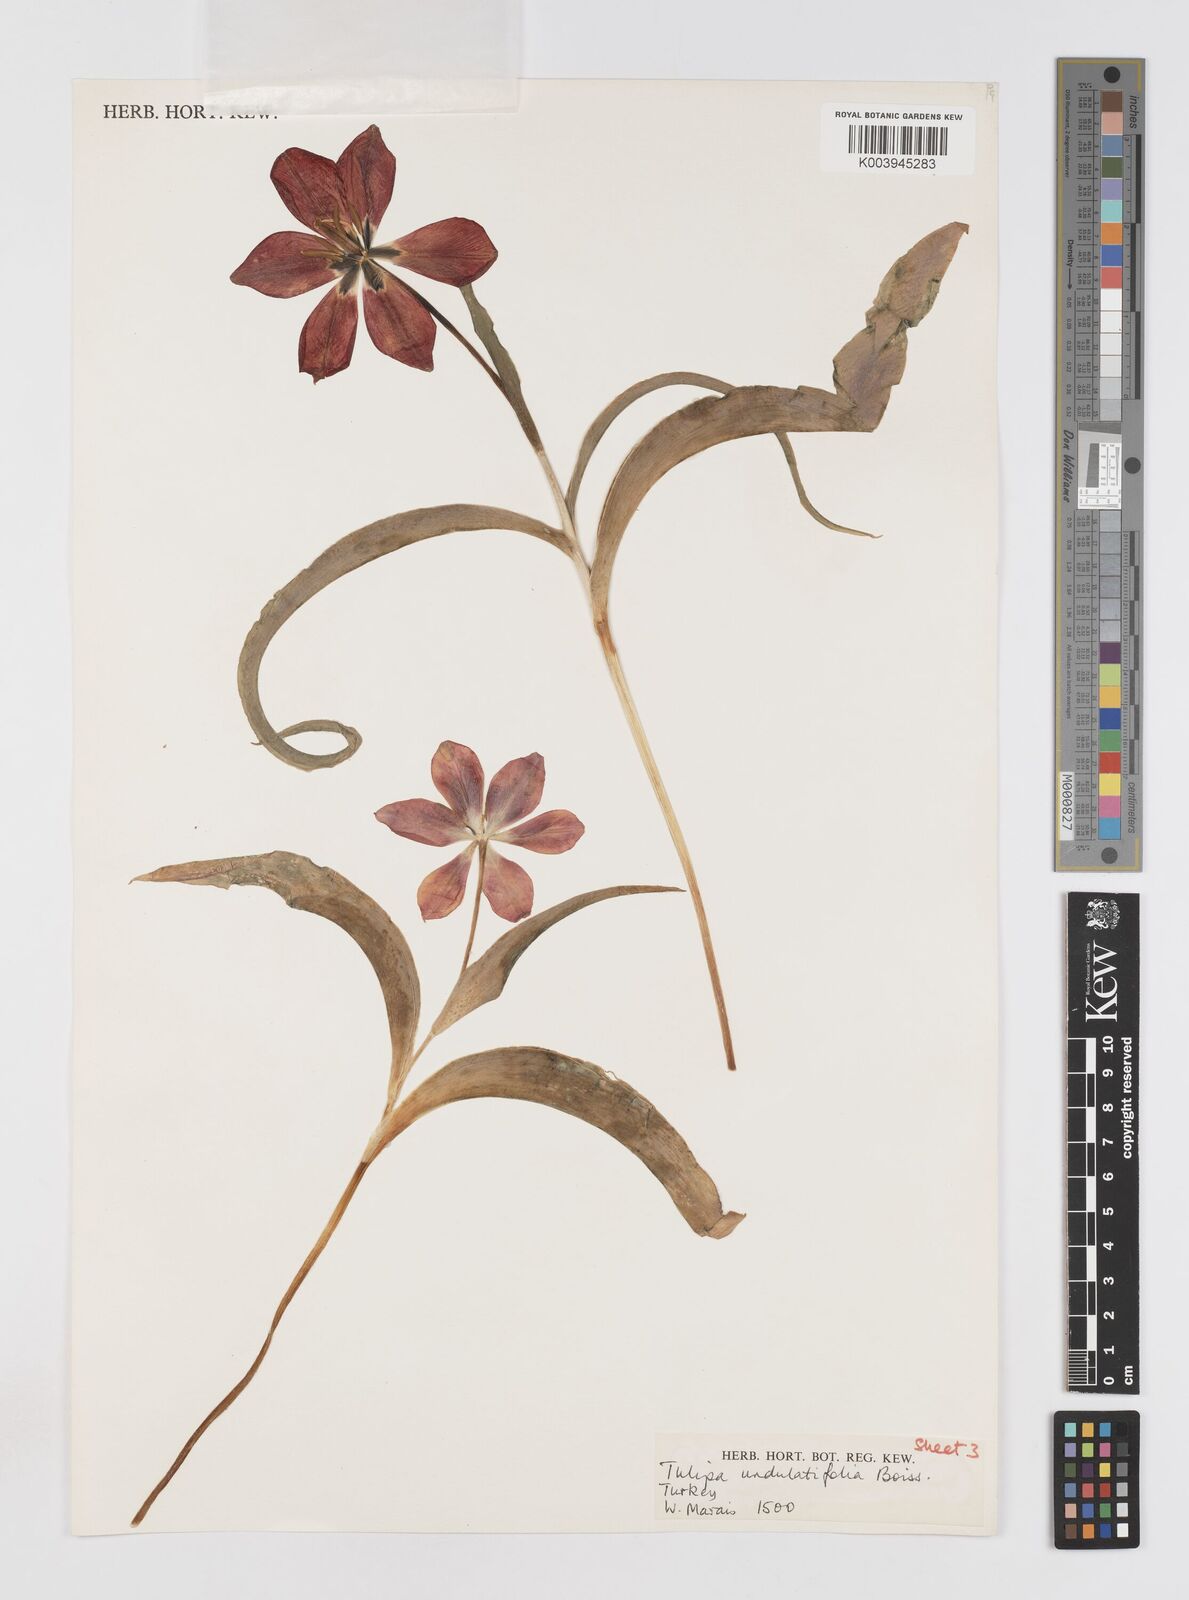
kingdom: Plantae
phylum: Tracheophyta
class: Liliopsida
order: Liliales
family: Liliaceae
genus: Tulipa
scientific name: Tulipa undulatifolia
